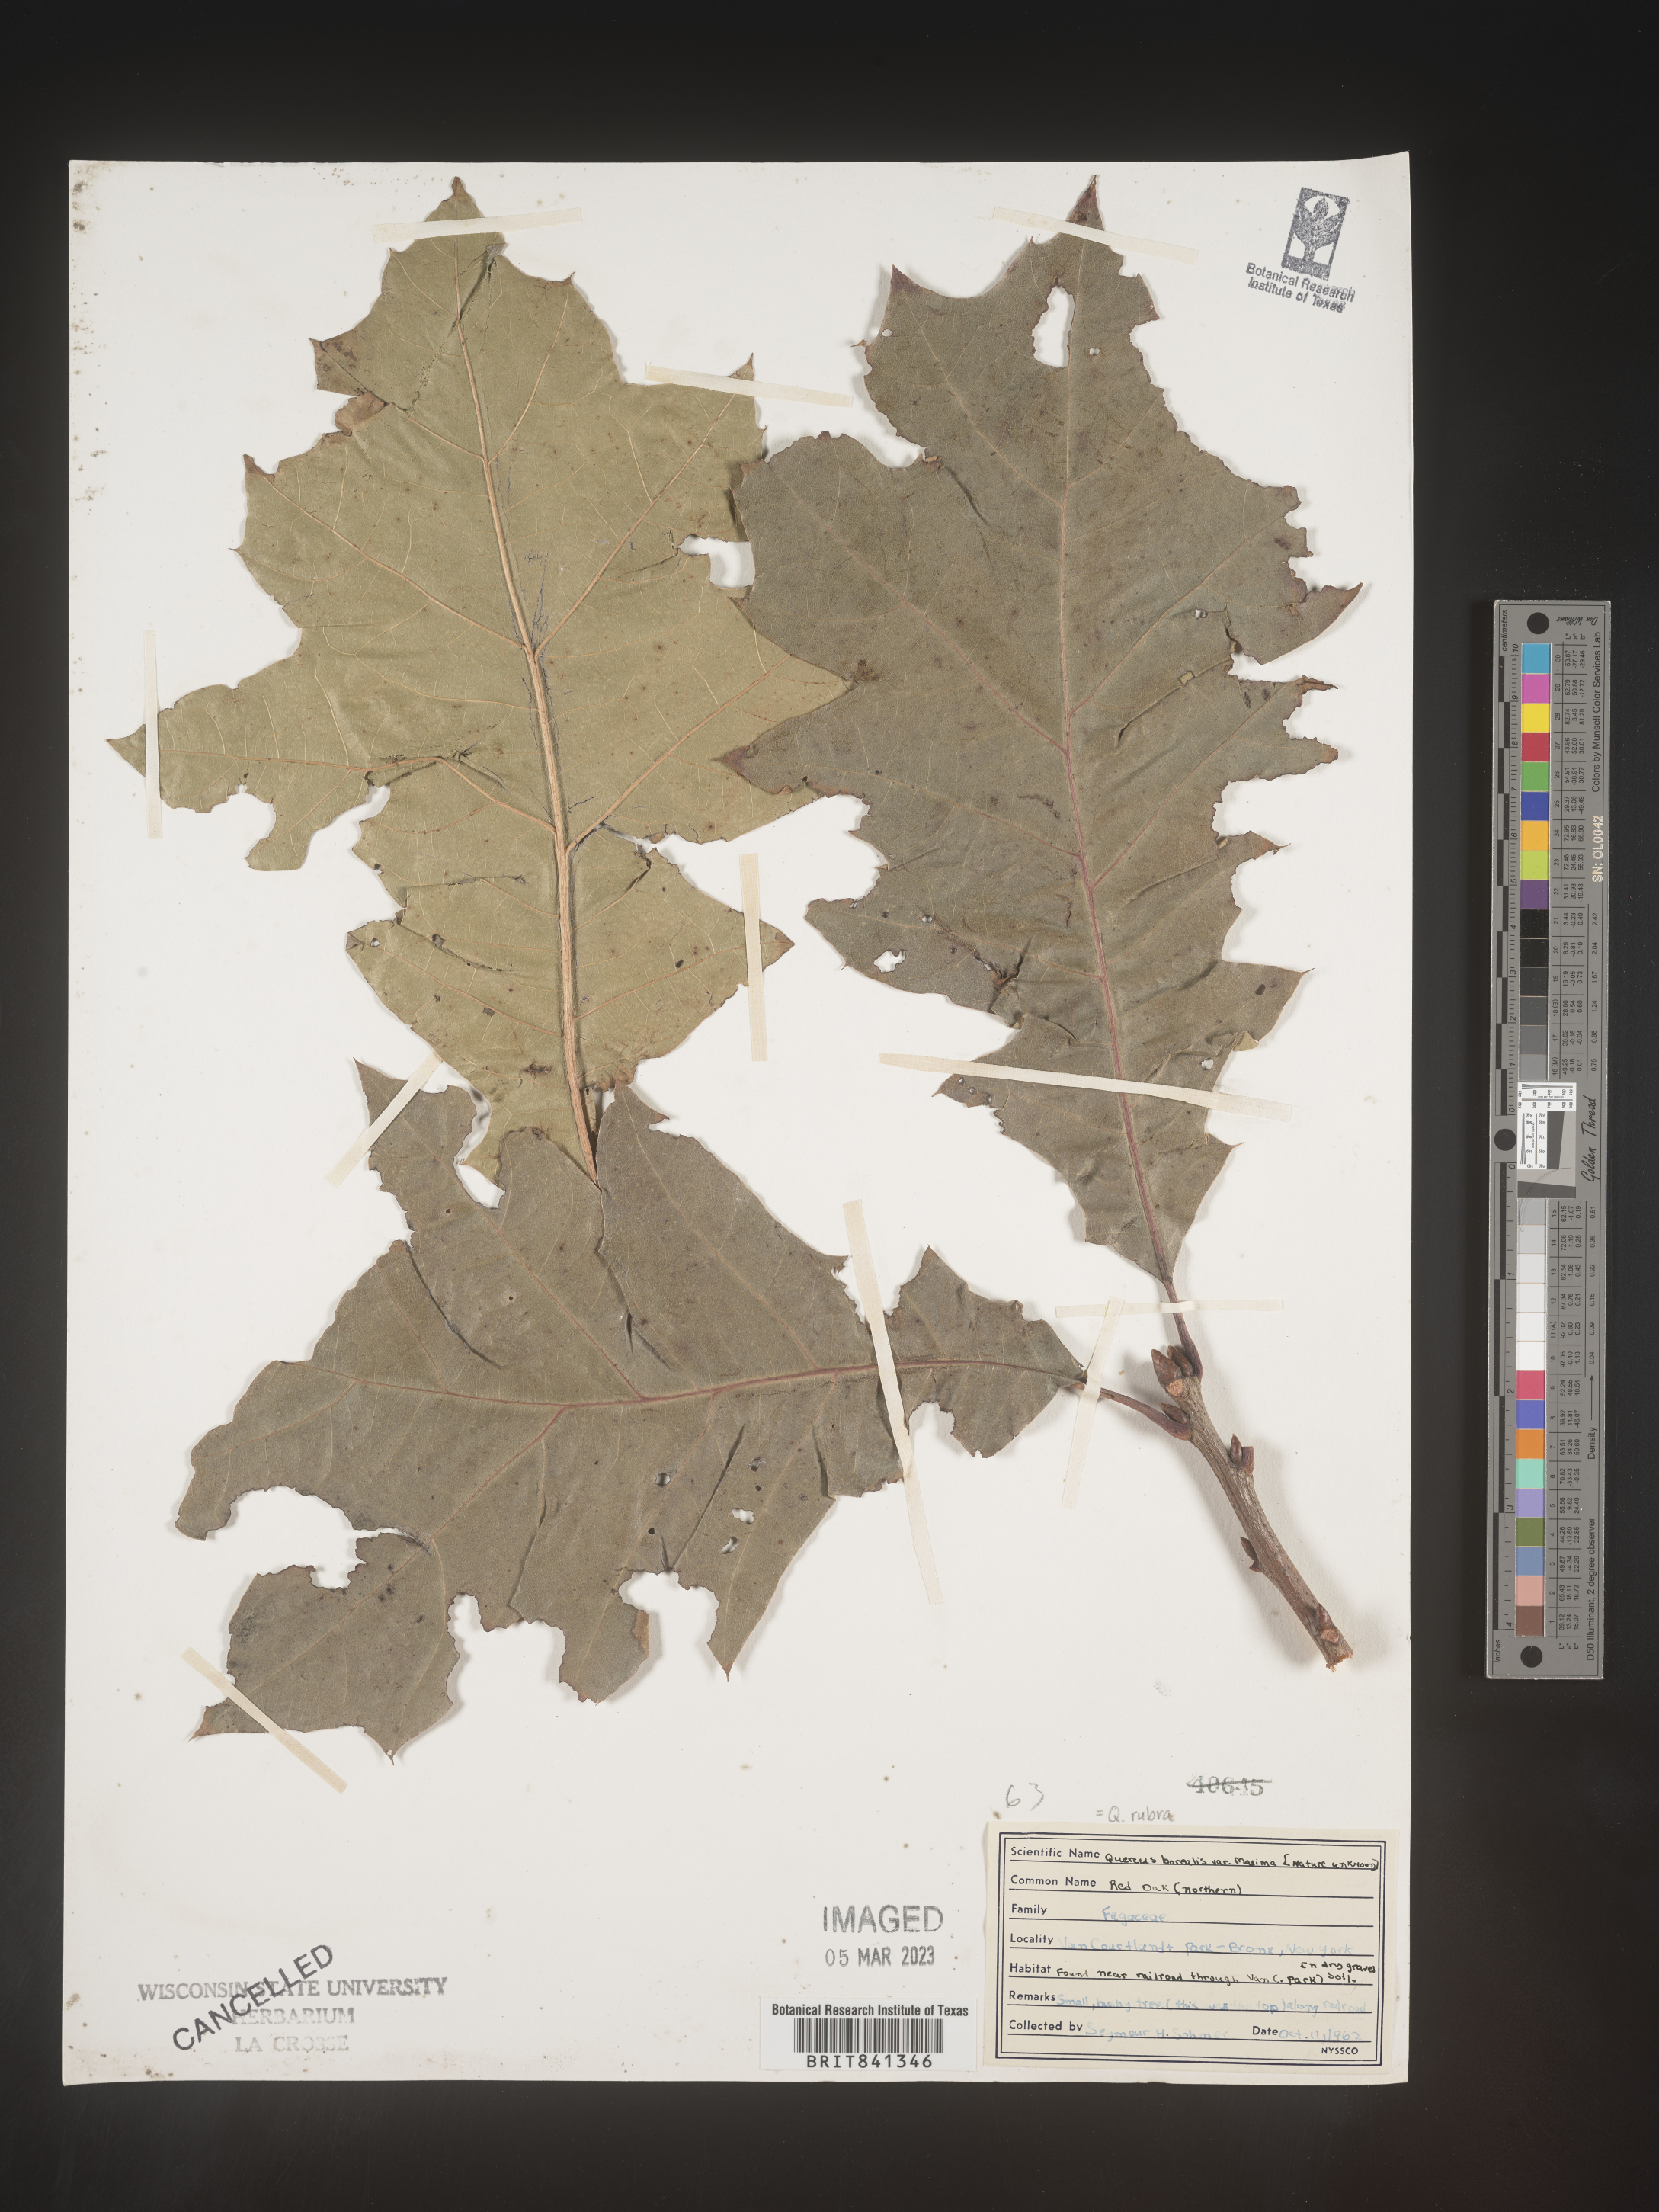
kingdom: Plantae
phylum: Tracheophyta
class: Magnoliopsida
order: Fagales
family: Fagaceae
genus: Quercus
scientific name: Quercus rubra
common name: Red oak
